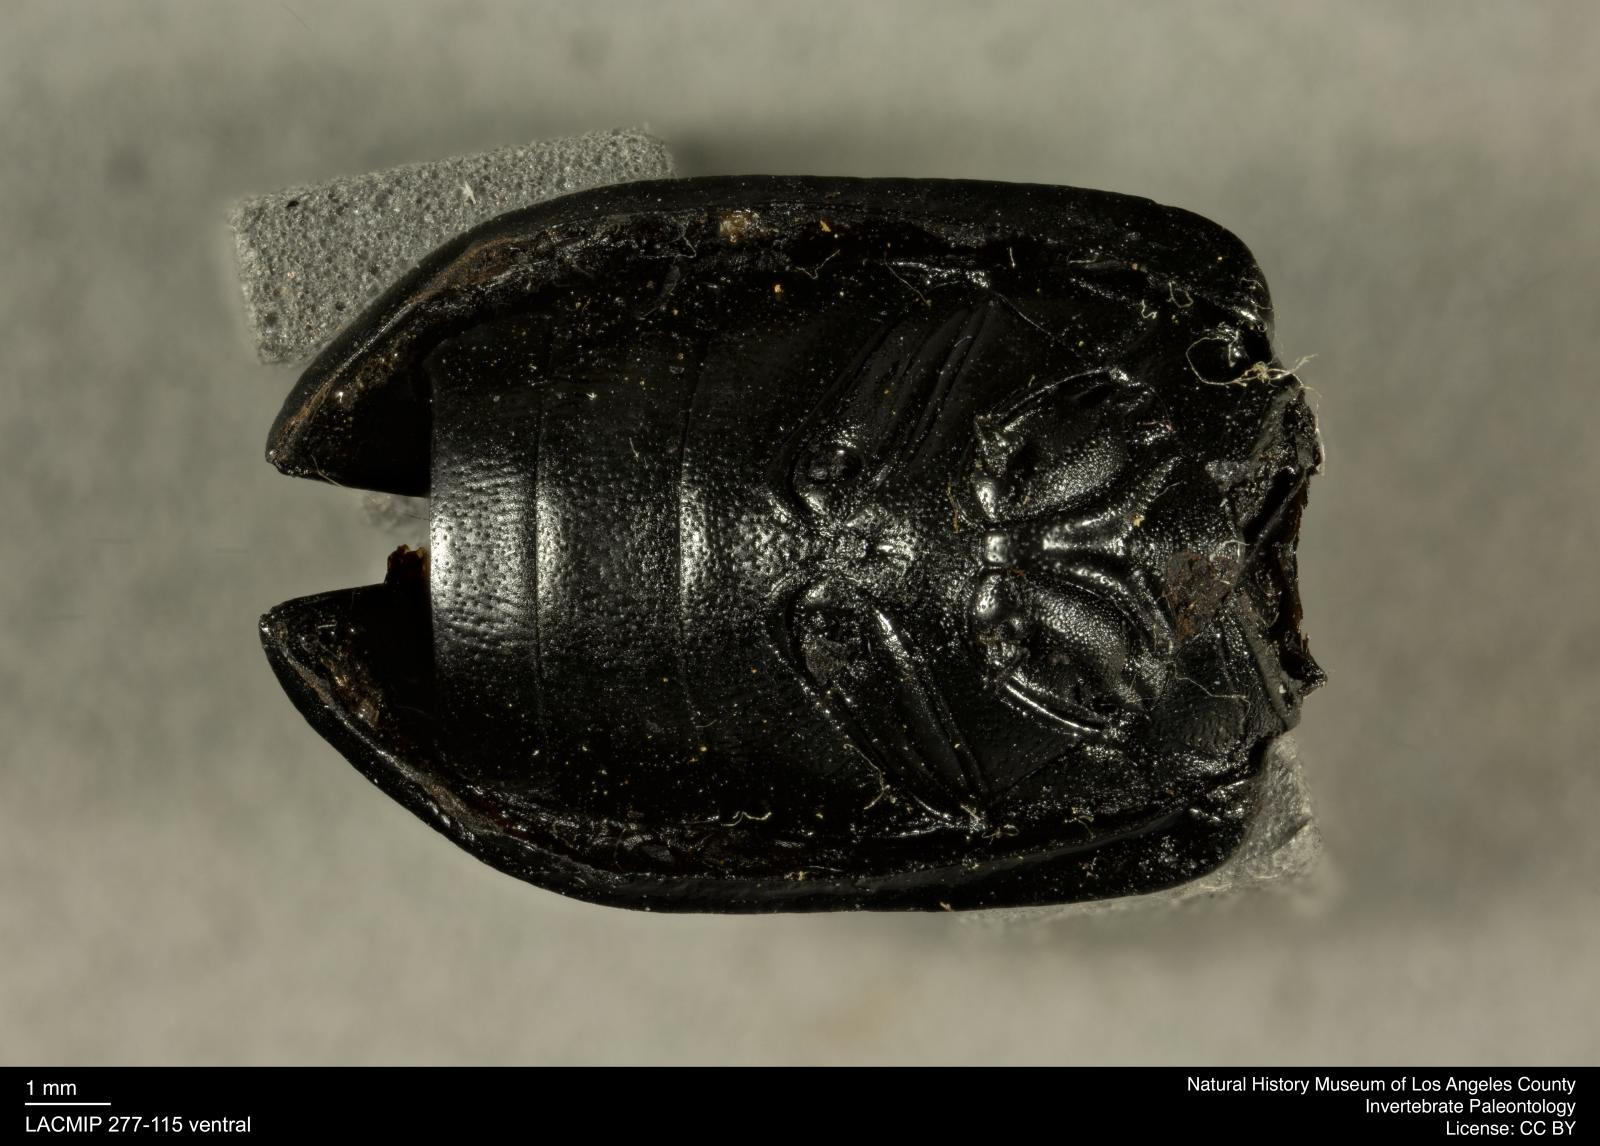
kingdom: Animalia
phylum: Arthropoda
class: Insecta
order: Coleoptera
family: Tenebrionidae
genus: Coniontis
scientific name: Coniontis abdominalis
